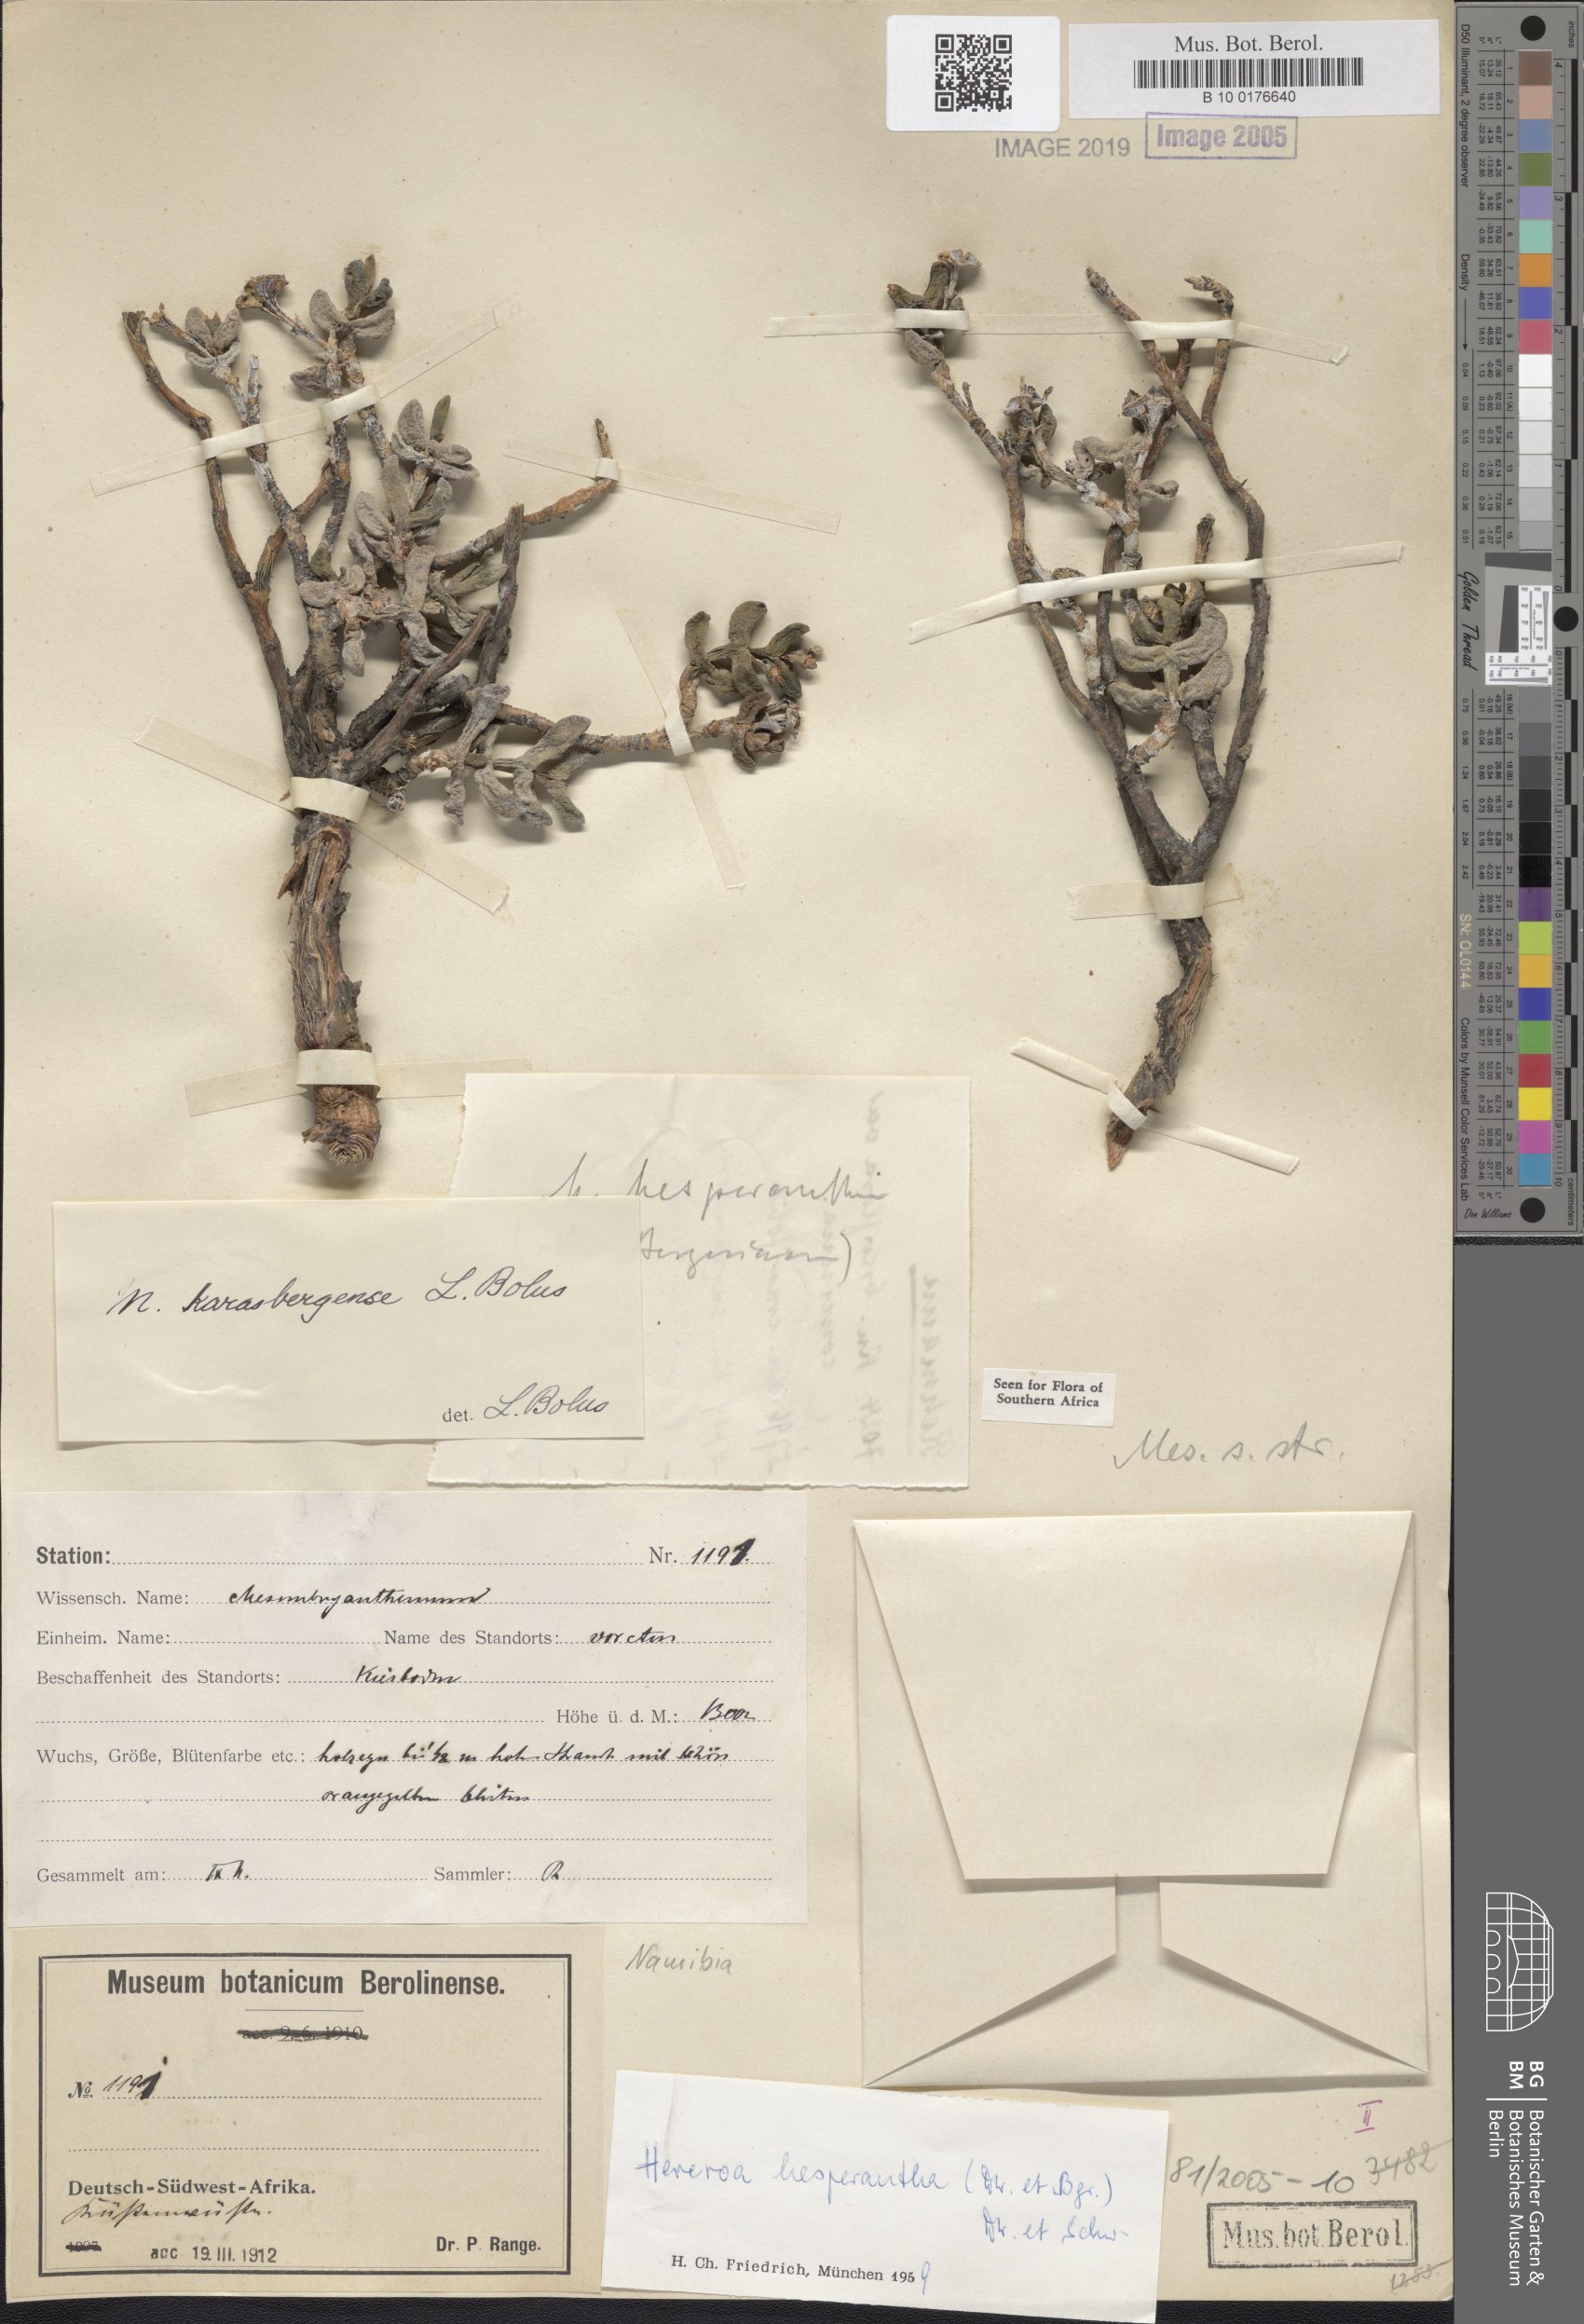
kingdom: Plantae
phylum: Tracheophyta
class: Magnoliopsida
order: Caryophyllales
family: Aizoaceae
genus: Dracophilus
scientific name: Dracophilus Hereroa hesperantha
